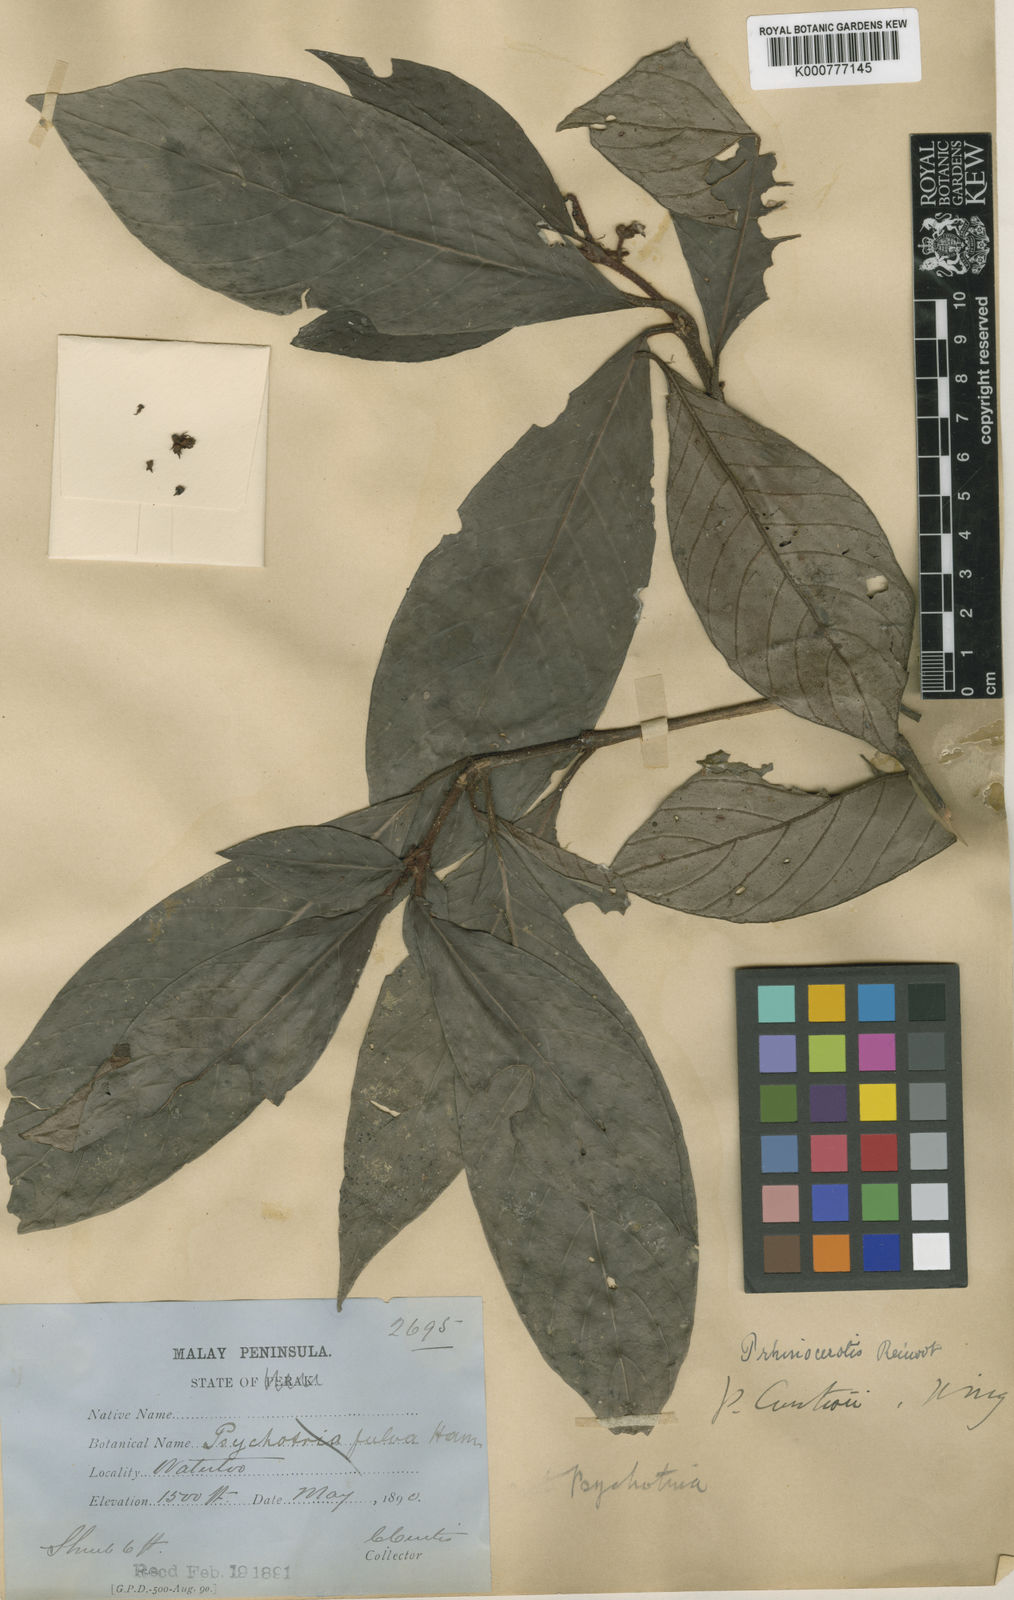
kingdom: Plantae
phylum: Tracheophyta
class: Magnoliopsida
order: Gentianales
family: Rubiaceae
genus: Psychotria
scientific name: Psychotria rhinocerotis
